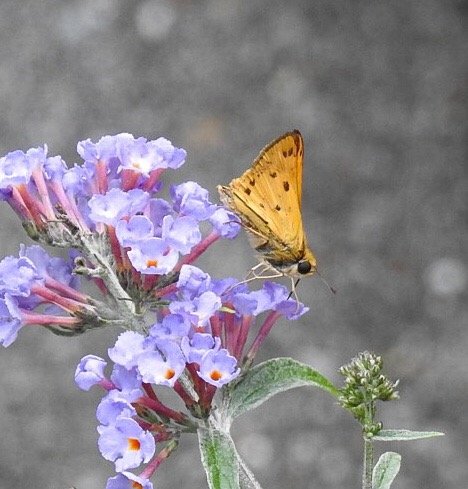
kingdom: Animalia
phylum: Arthropoda
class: Insecta
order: Lepidoptera
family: Hesperiidae
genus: Hylephila
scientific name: Hylephila phyleus
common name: Fiery Skipper
